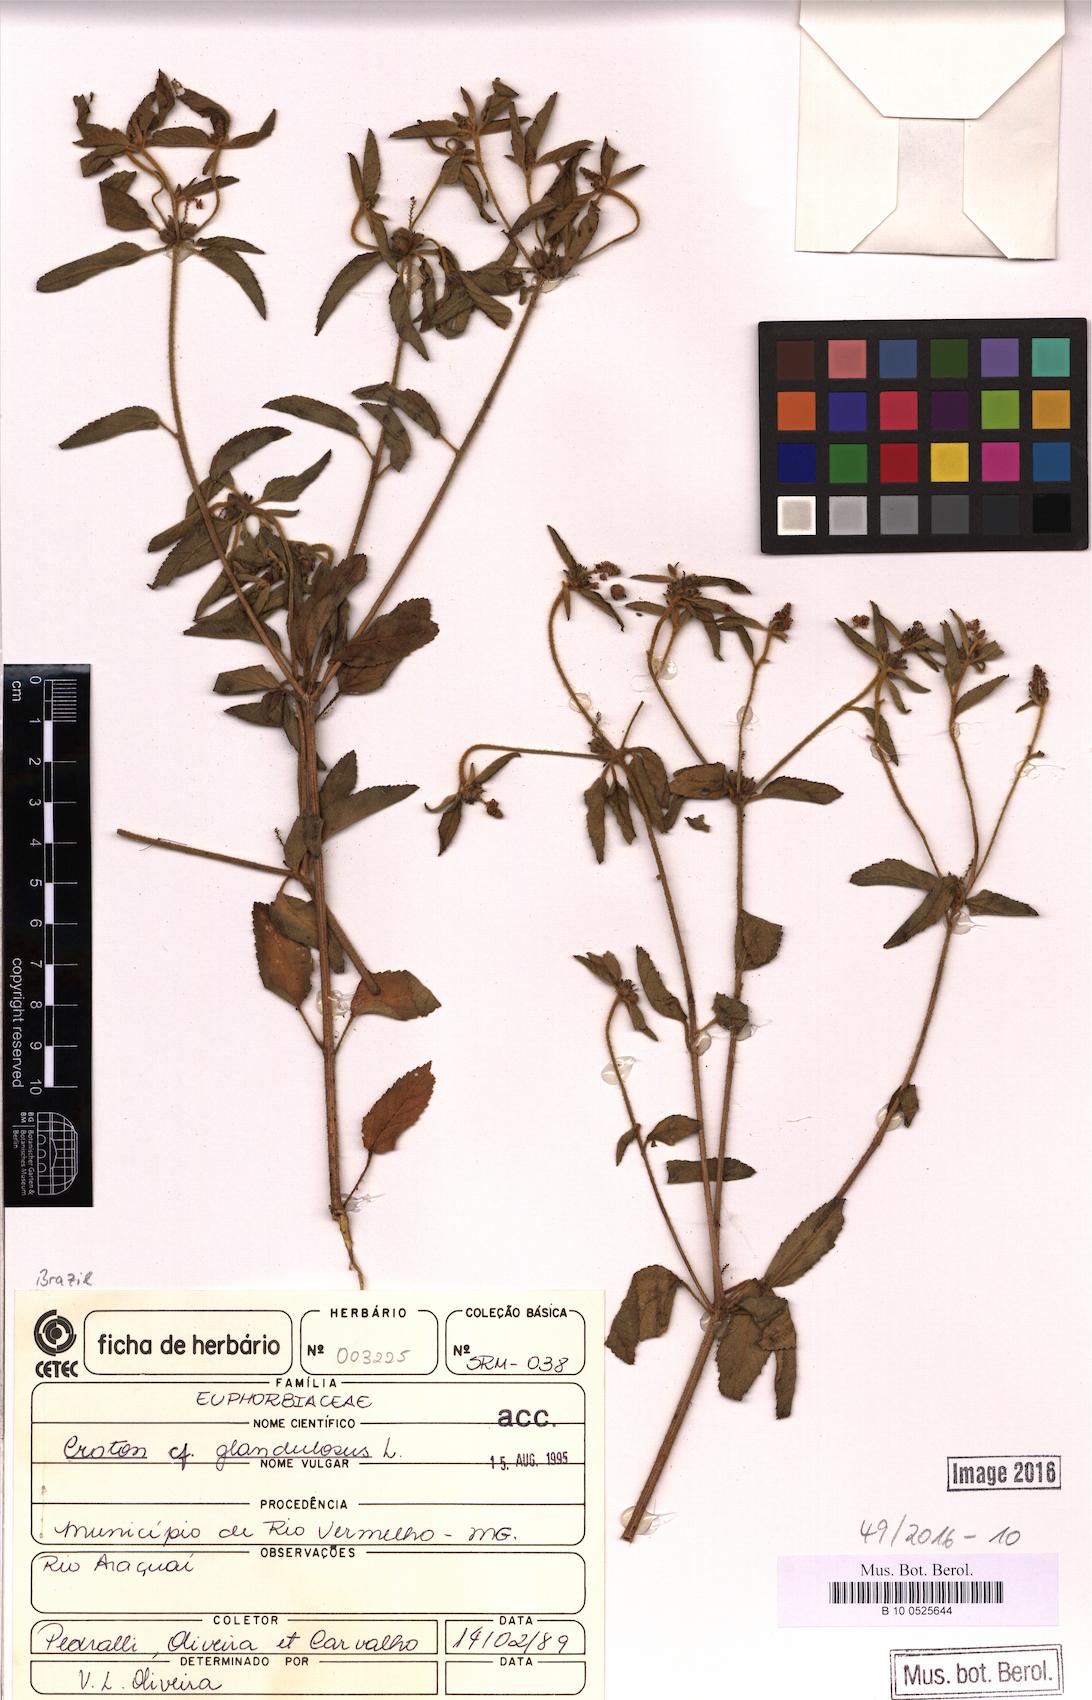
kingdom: Plantae
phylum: Tracheophyta
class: Magnoliopsida
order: Malpighiales
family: Euphorbiaceae
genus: Croton
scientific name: Croton glandulosus
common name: Tropic croton
